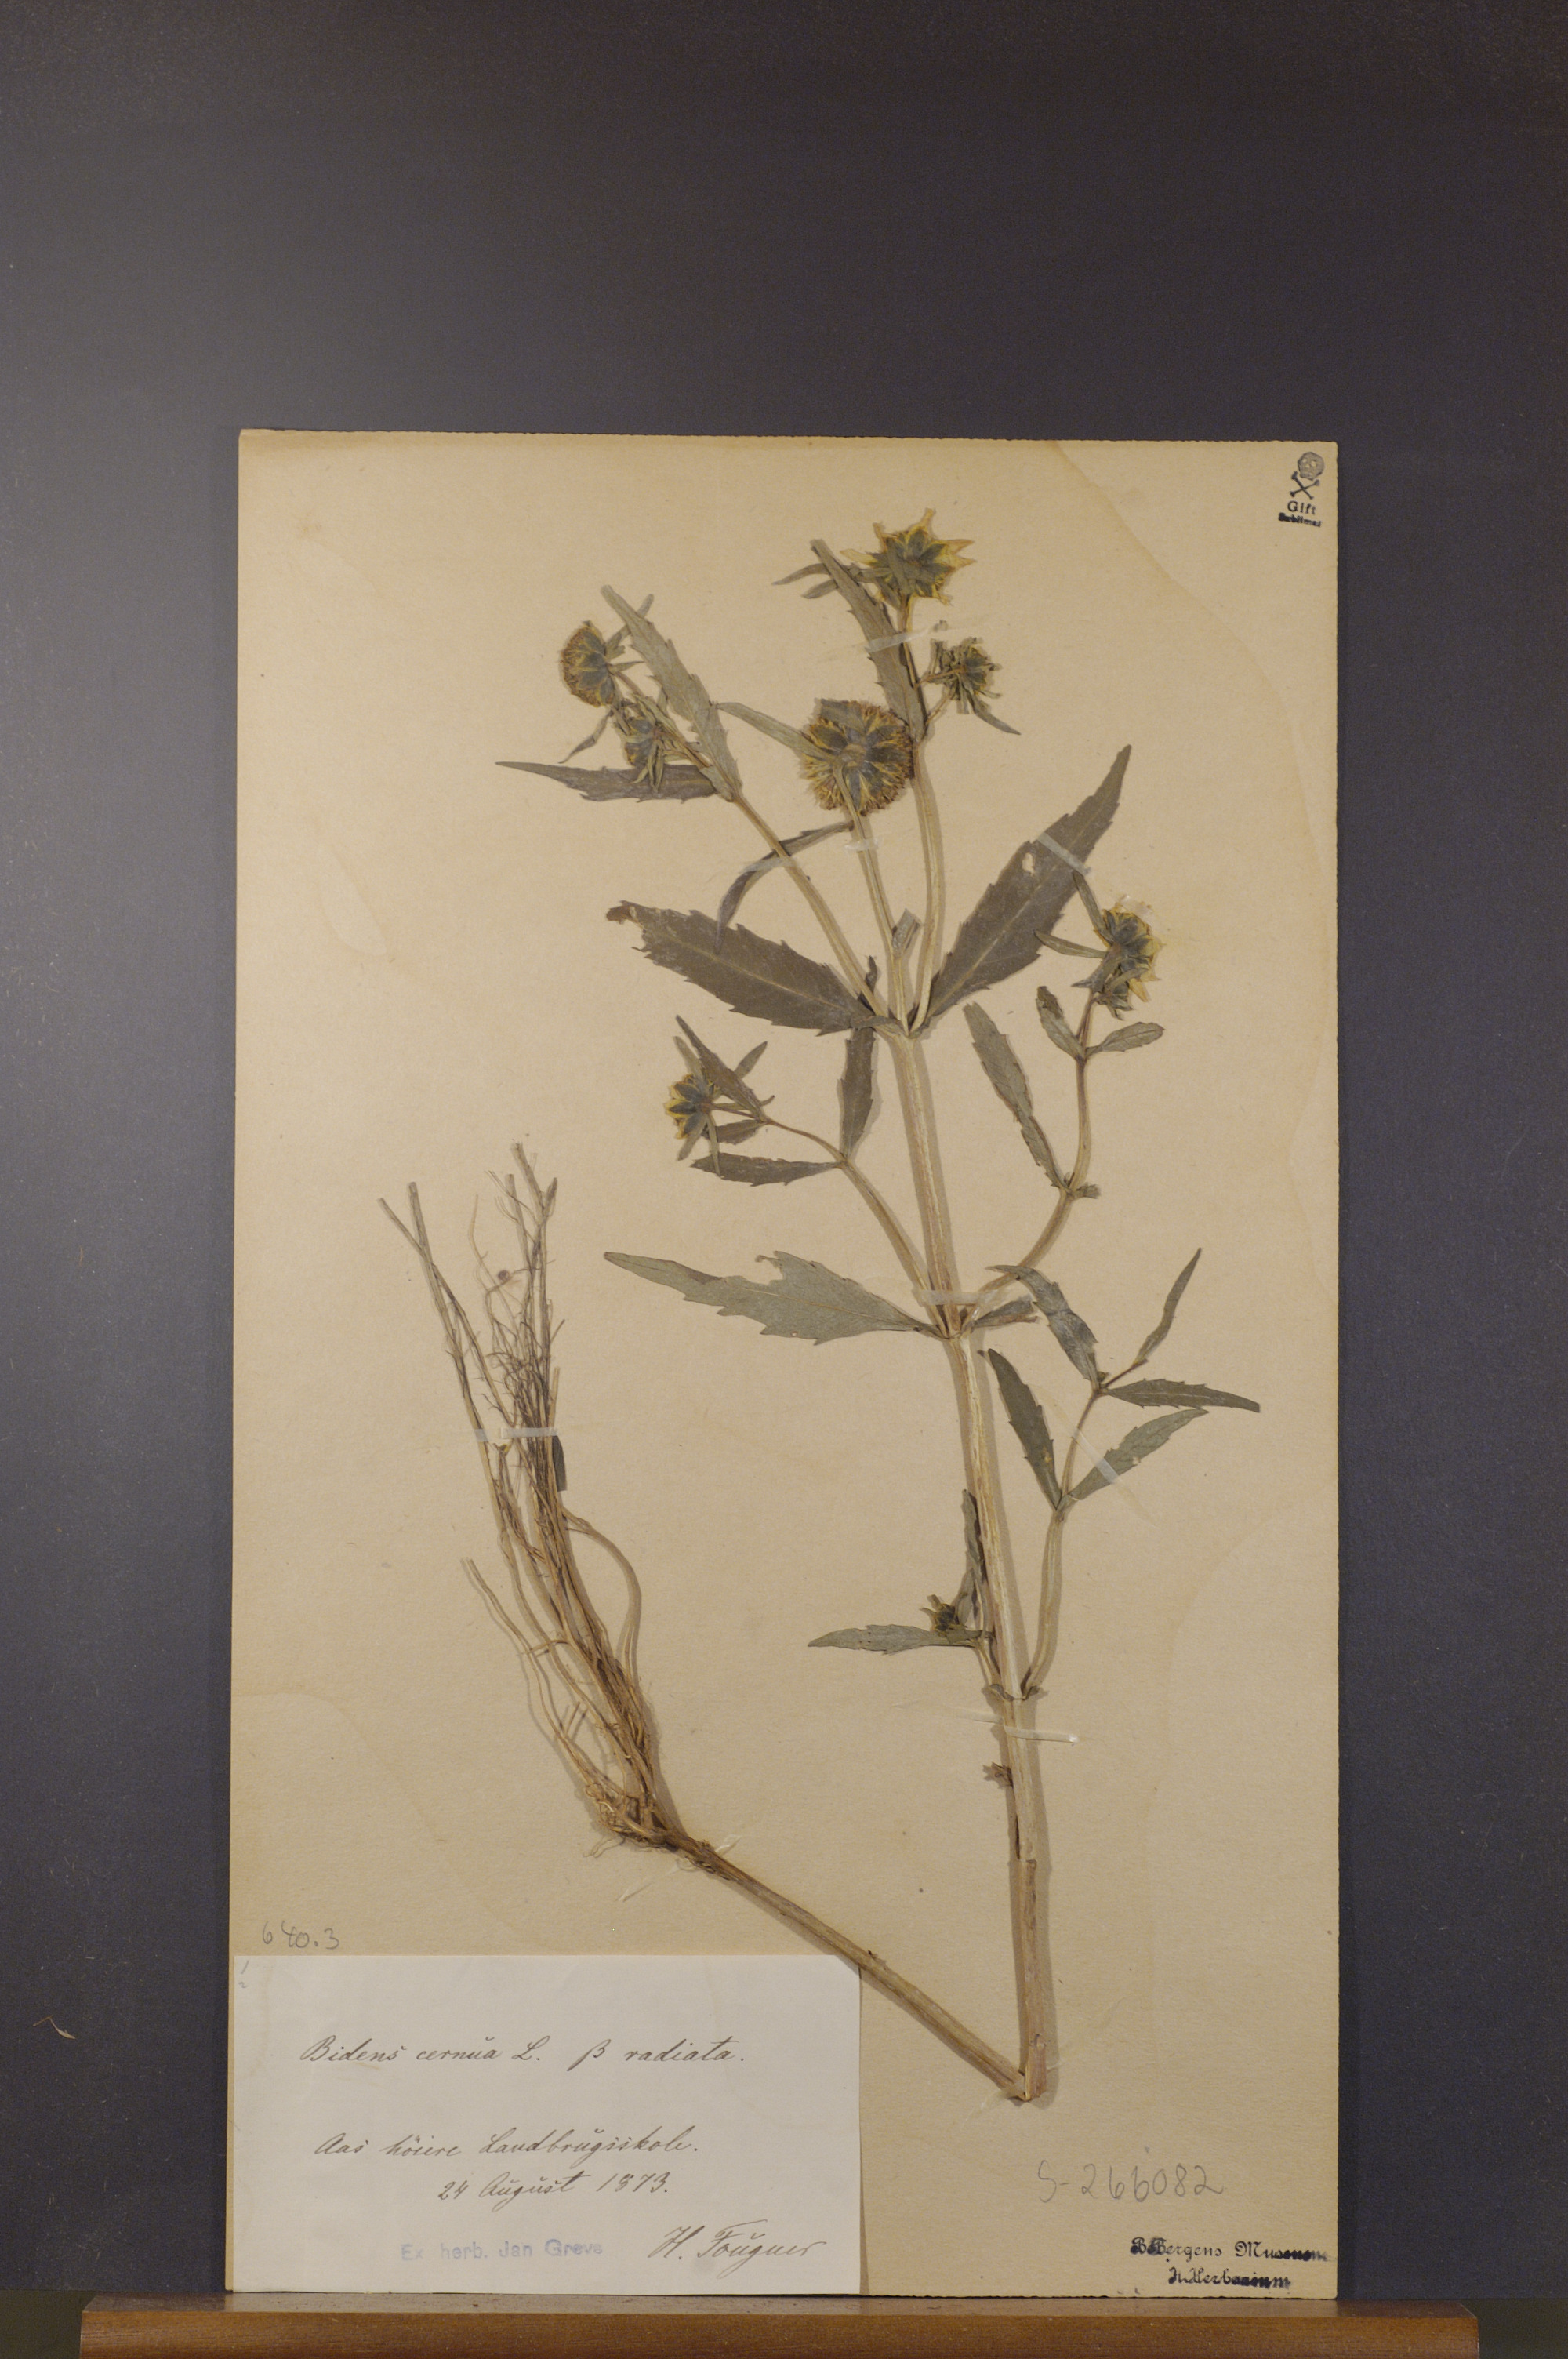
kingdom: Plantae
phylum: Tracheophyta
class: Magnoliopsida
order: Asterales
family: Asteraceae
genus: Bidens
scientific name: Bidens cernua
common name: Nodding bur-marigold
